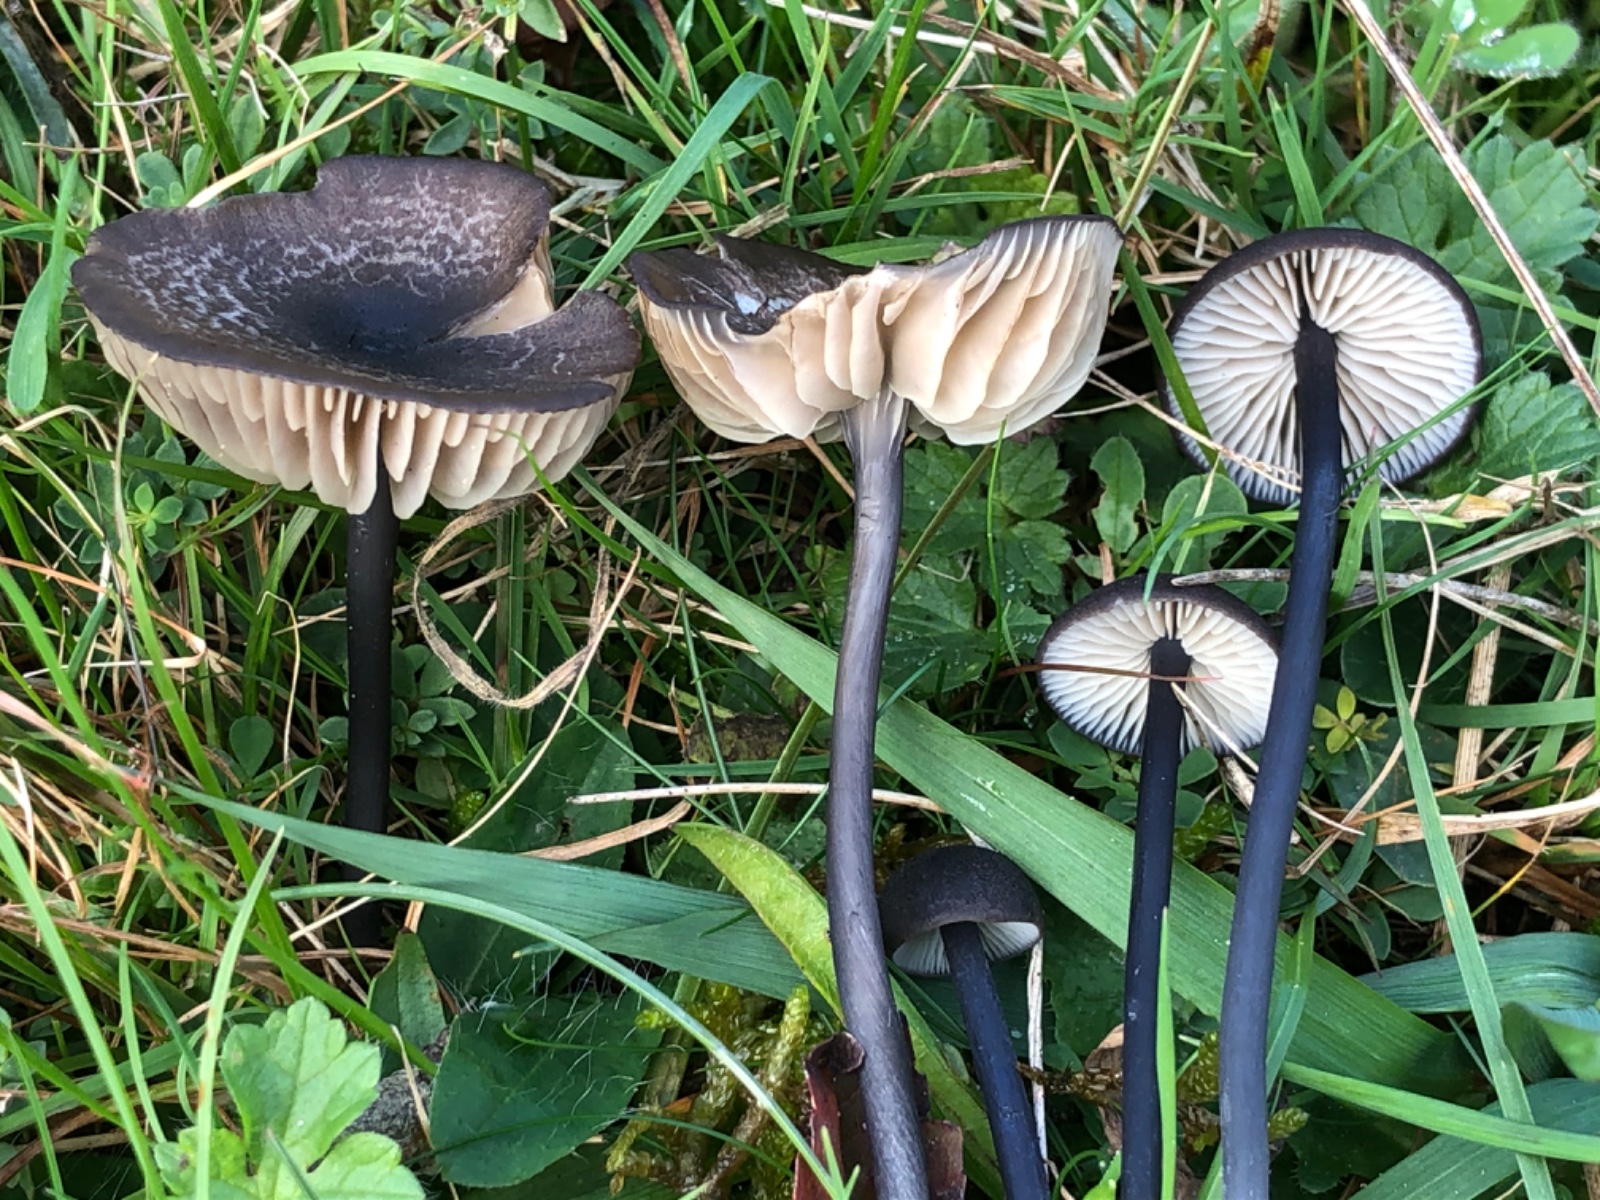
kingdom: Fungi
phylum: Basidiomycota
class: Agaricomycetes
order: Agaricales
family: Entolomataceae
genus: Entoloma
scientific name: Entoloma
